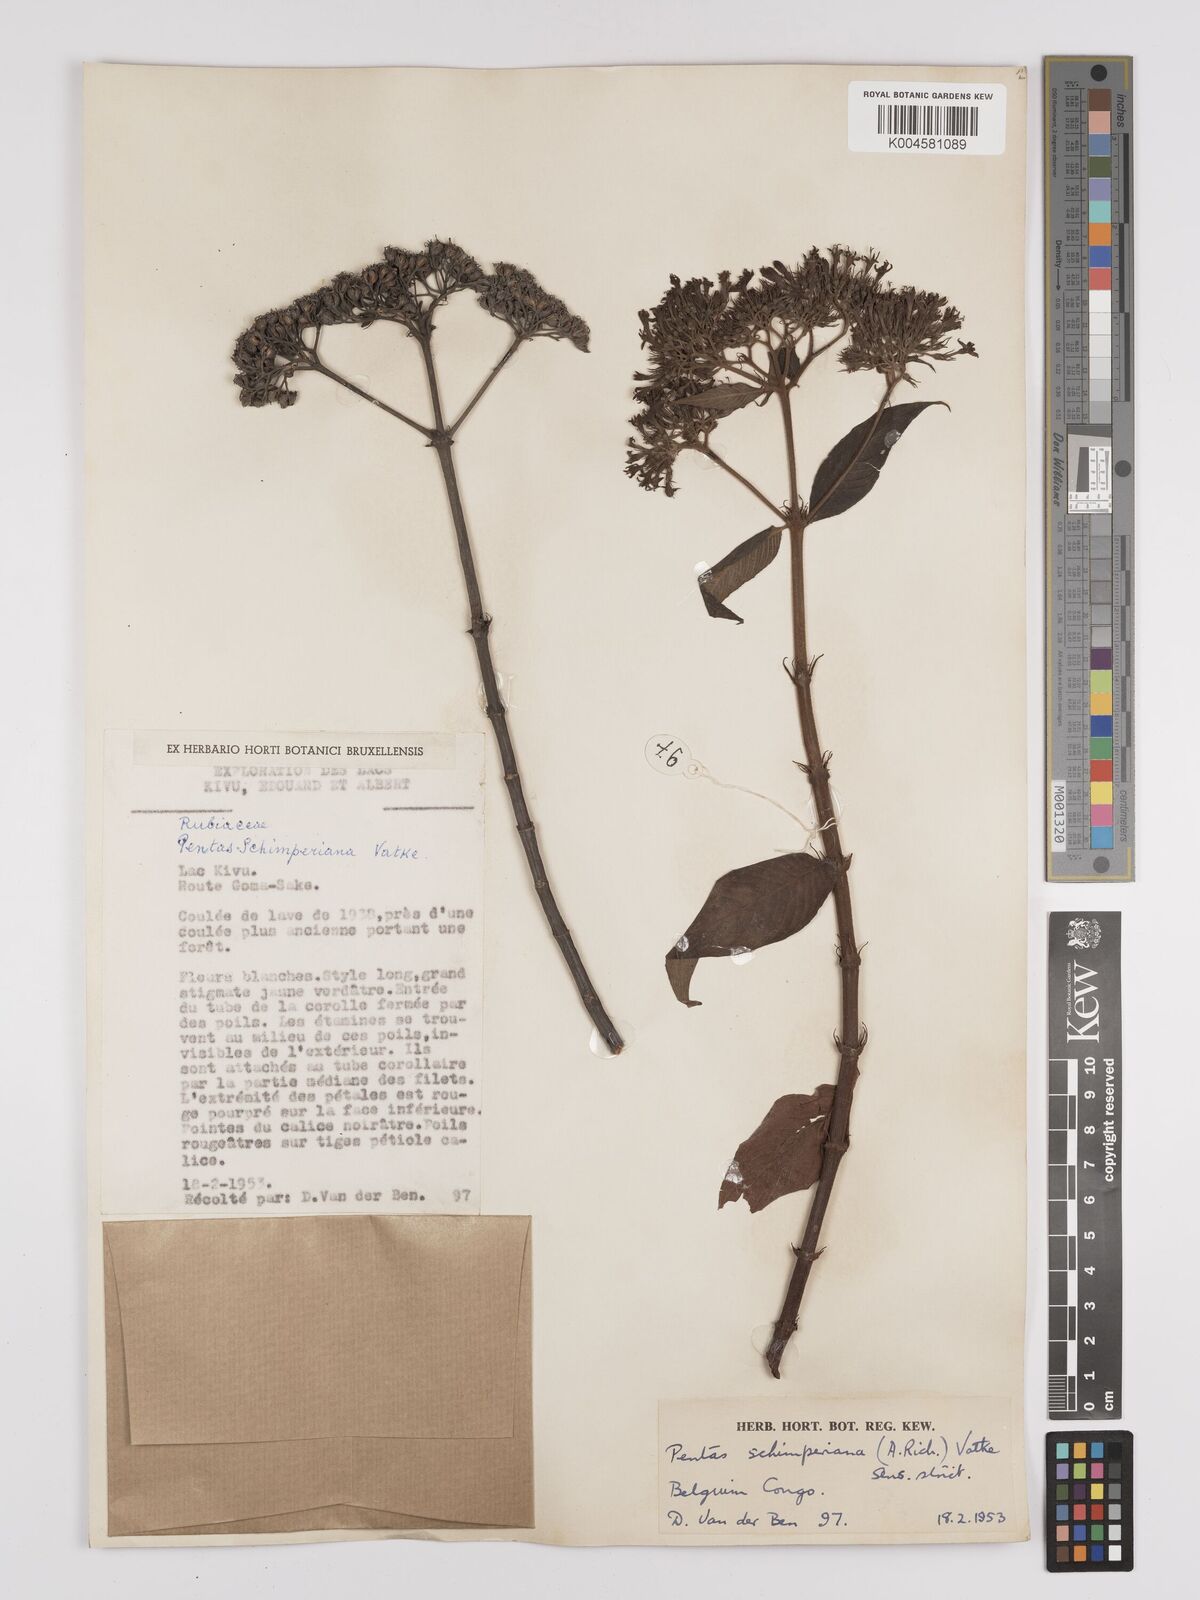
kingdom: Plantae
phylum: Tracheophyta
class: Magnoliopsida
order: Gentianales
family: Rubiaceae
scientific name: Rubiaceae
